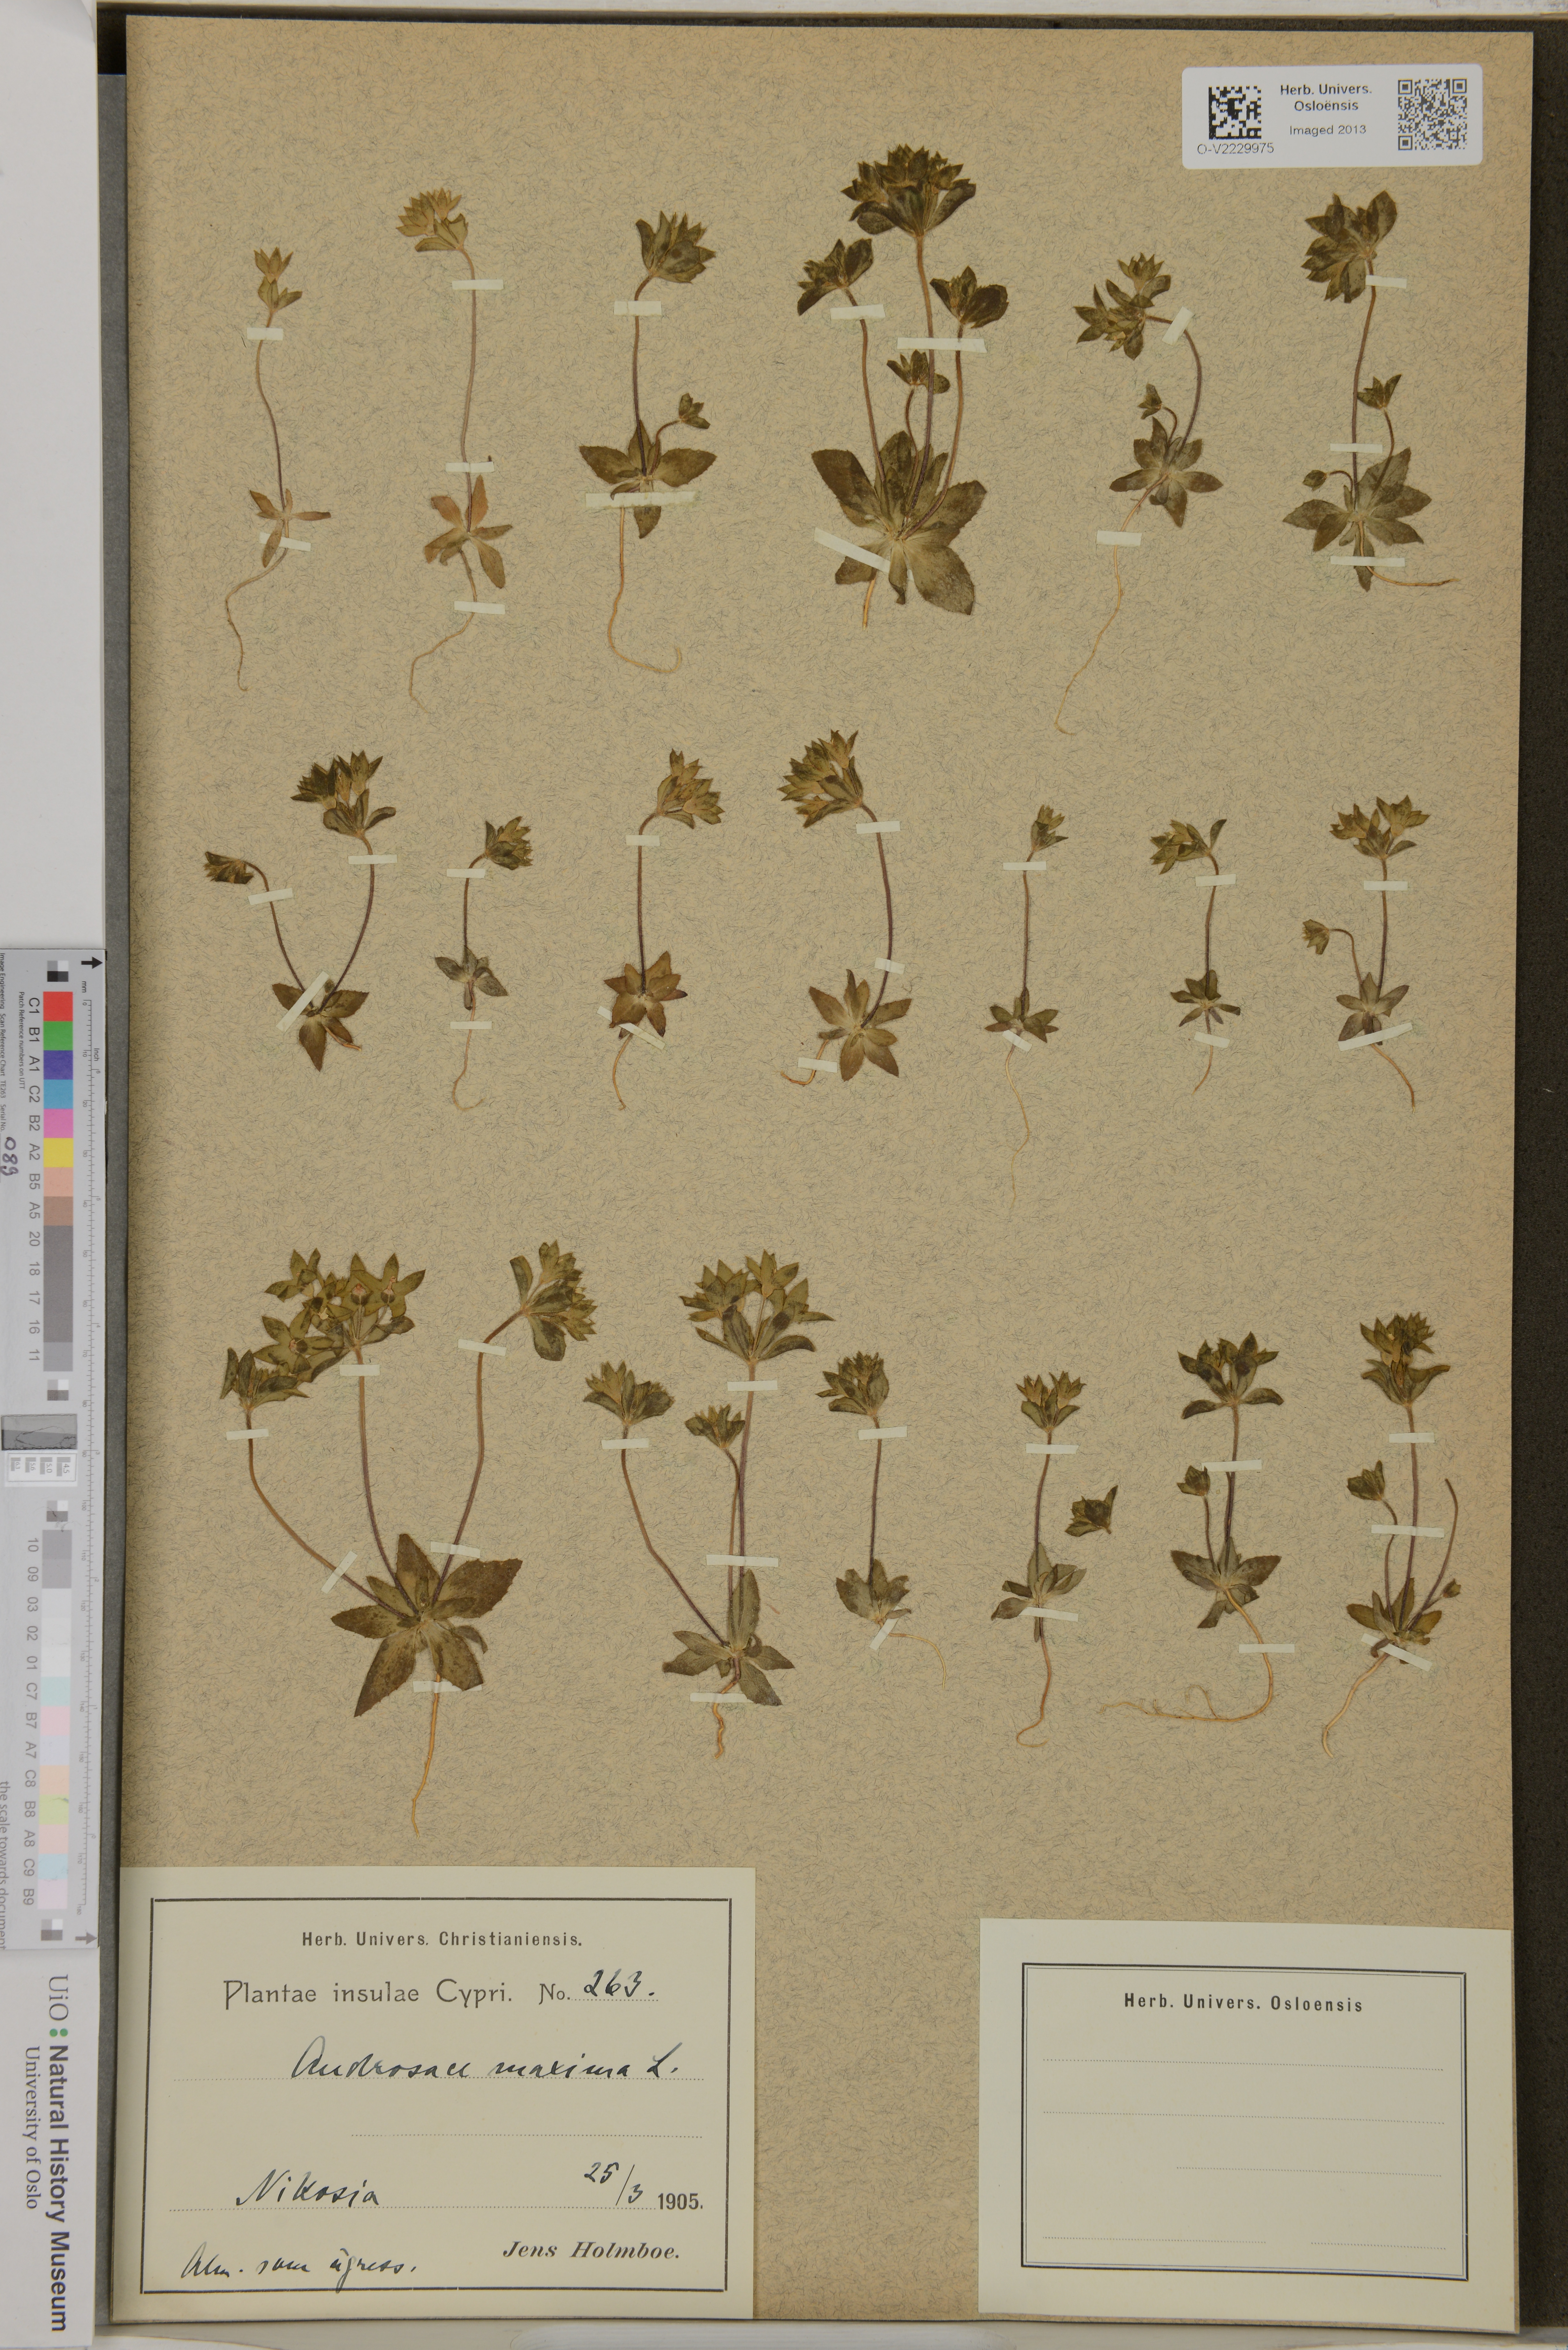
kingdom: Plantae
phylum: Tracheophyta
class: Magnoliopsida
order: Ericales
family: Primulaceae
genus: Androsace
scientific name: Androsace maxima
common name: Annual androsace
